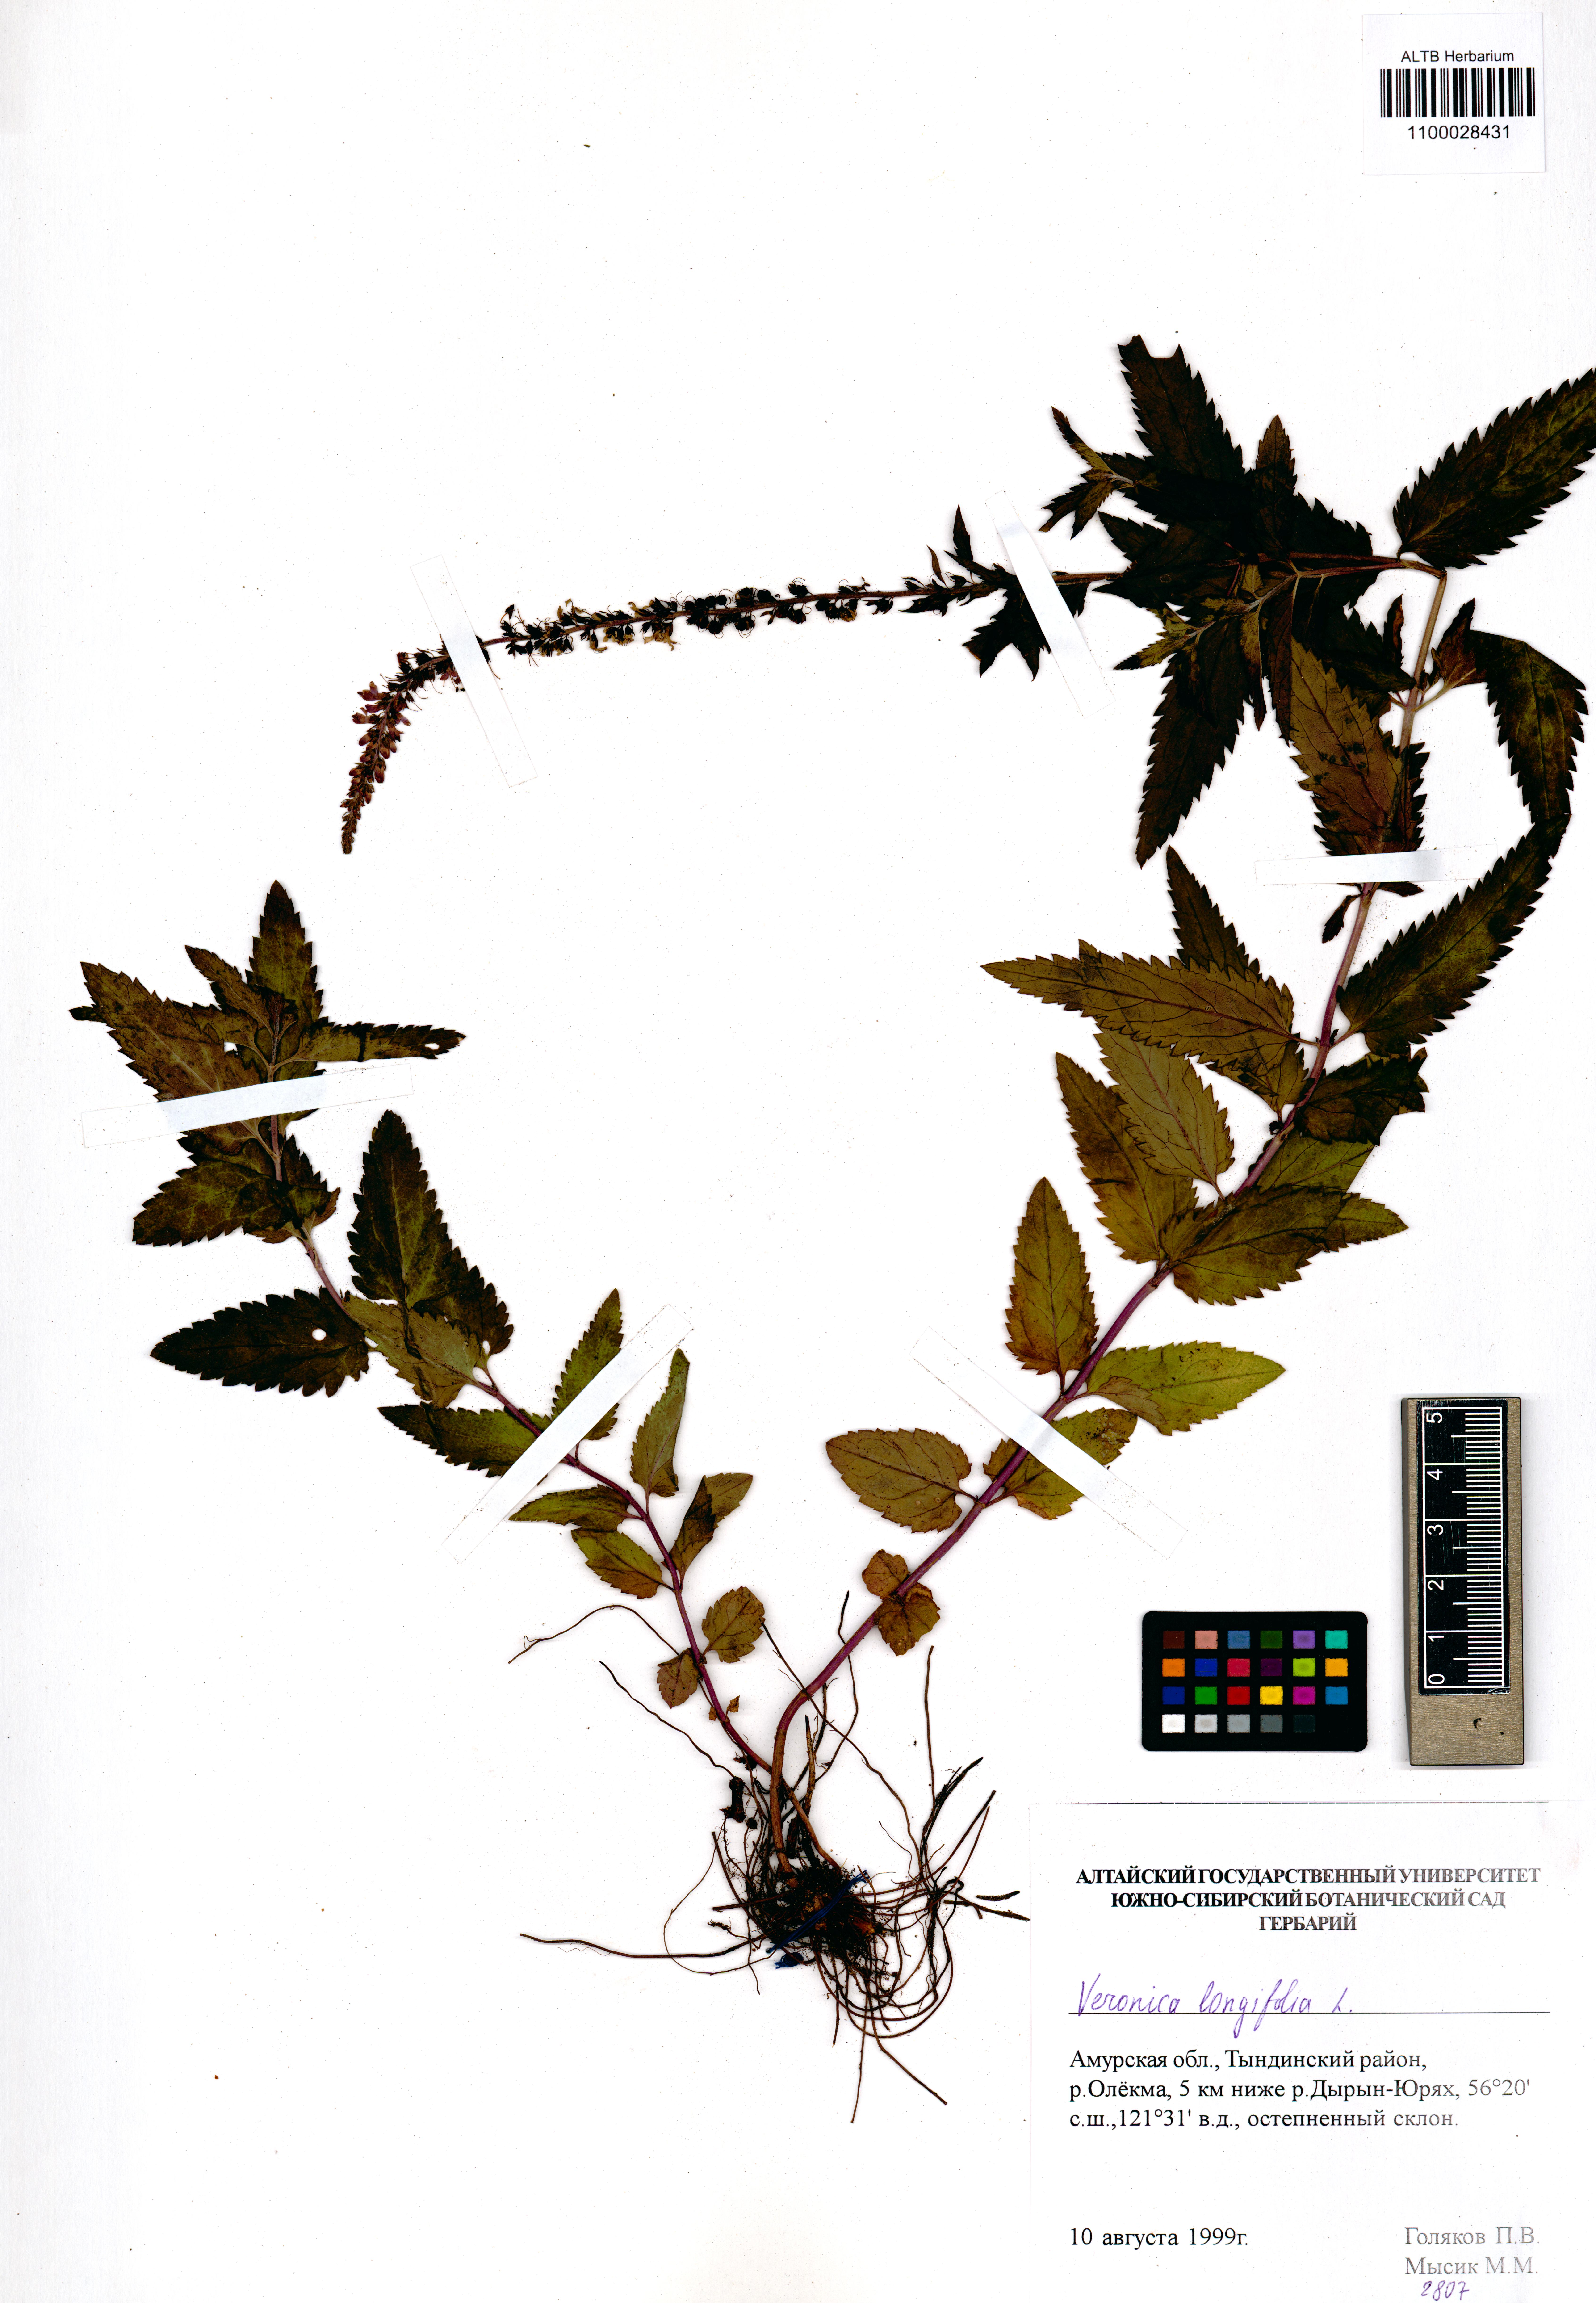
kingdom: Plantae
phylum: Tracheophyta
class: Magnoliopsida
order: Lamiales
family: Plantaginaceae
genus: Veronica
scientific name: Veronica longifolia
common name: Garden speedwell
